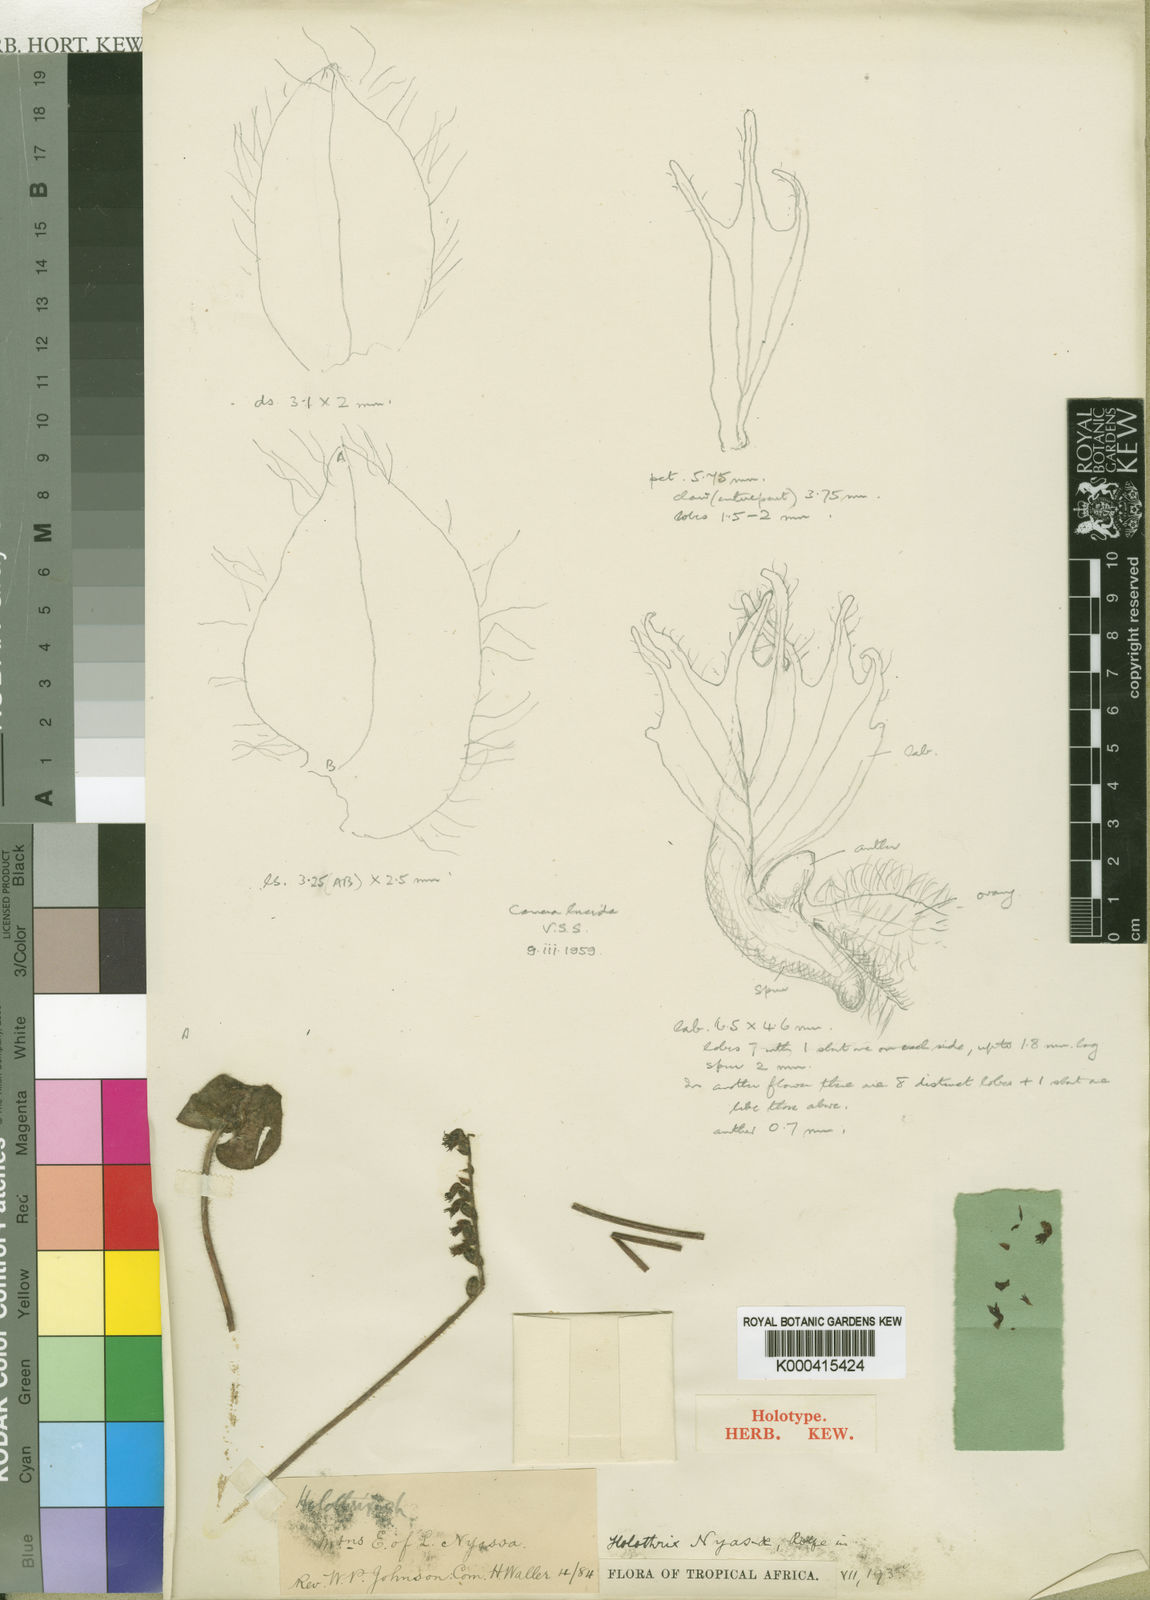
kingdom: Plantae
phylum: Tracheophyta
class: Liliopsida
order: Asparagales
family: Orchidaceae
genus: Holothrix
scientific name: Holothrix nyasae
